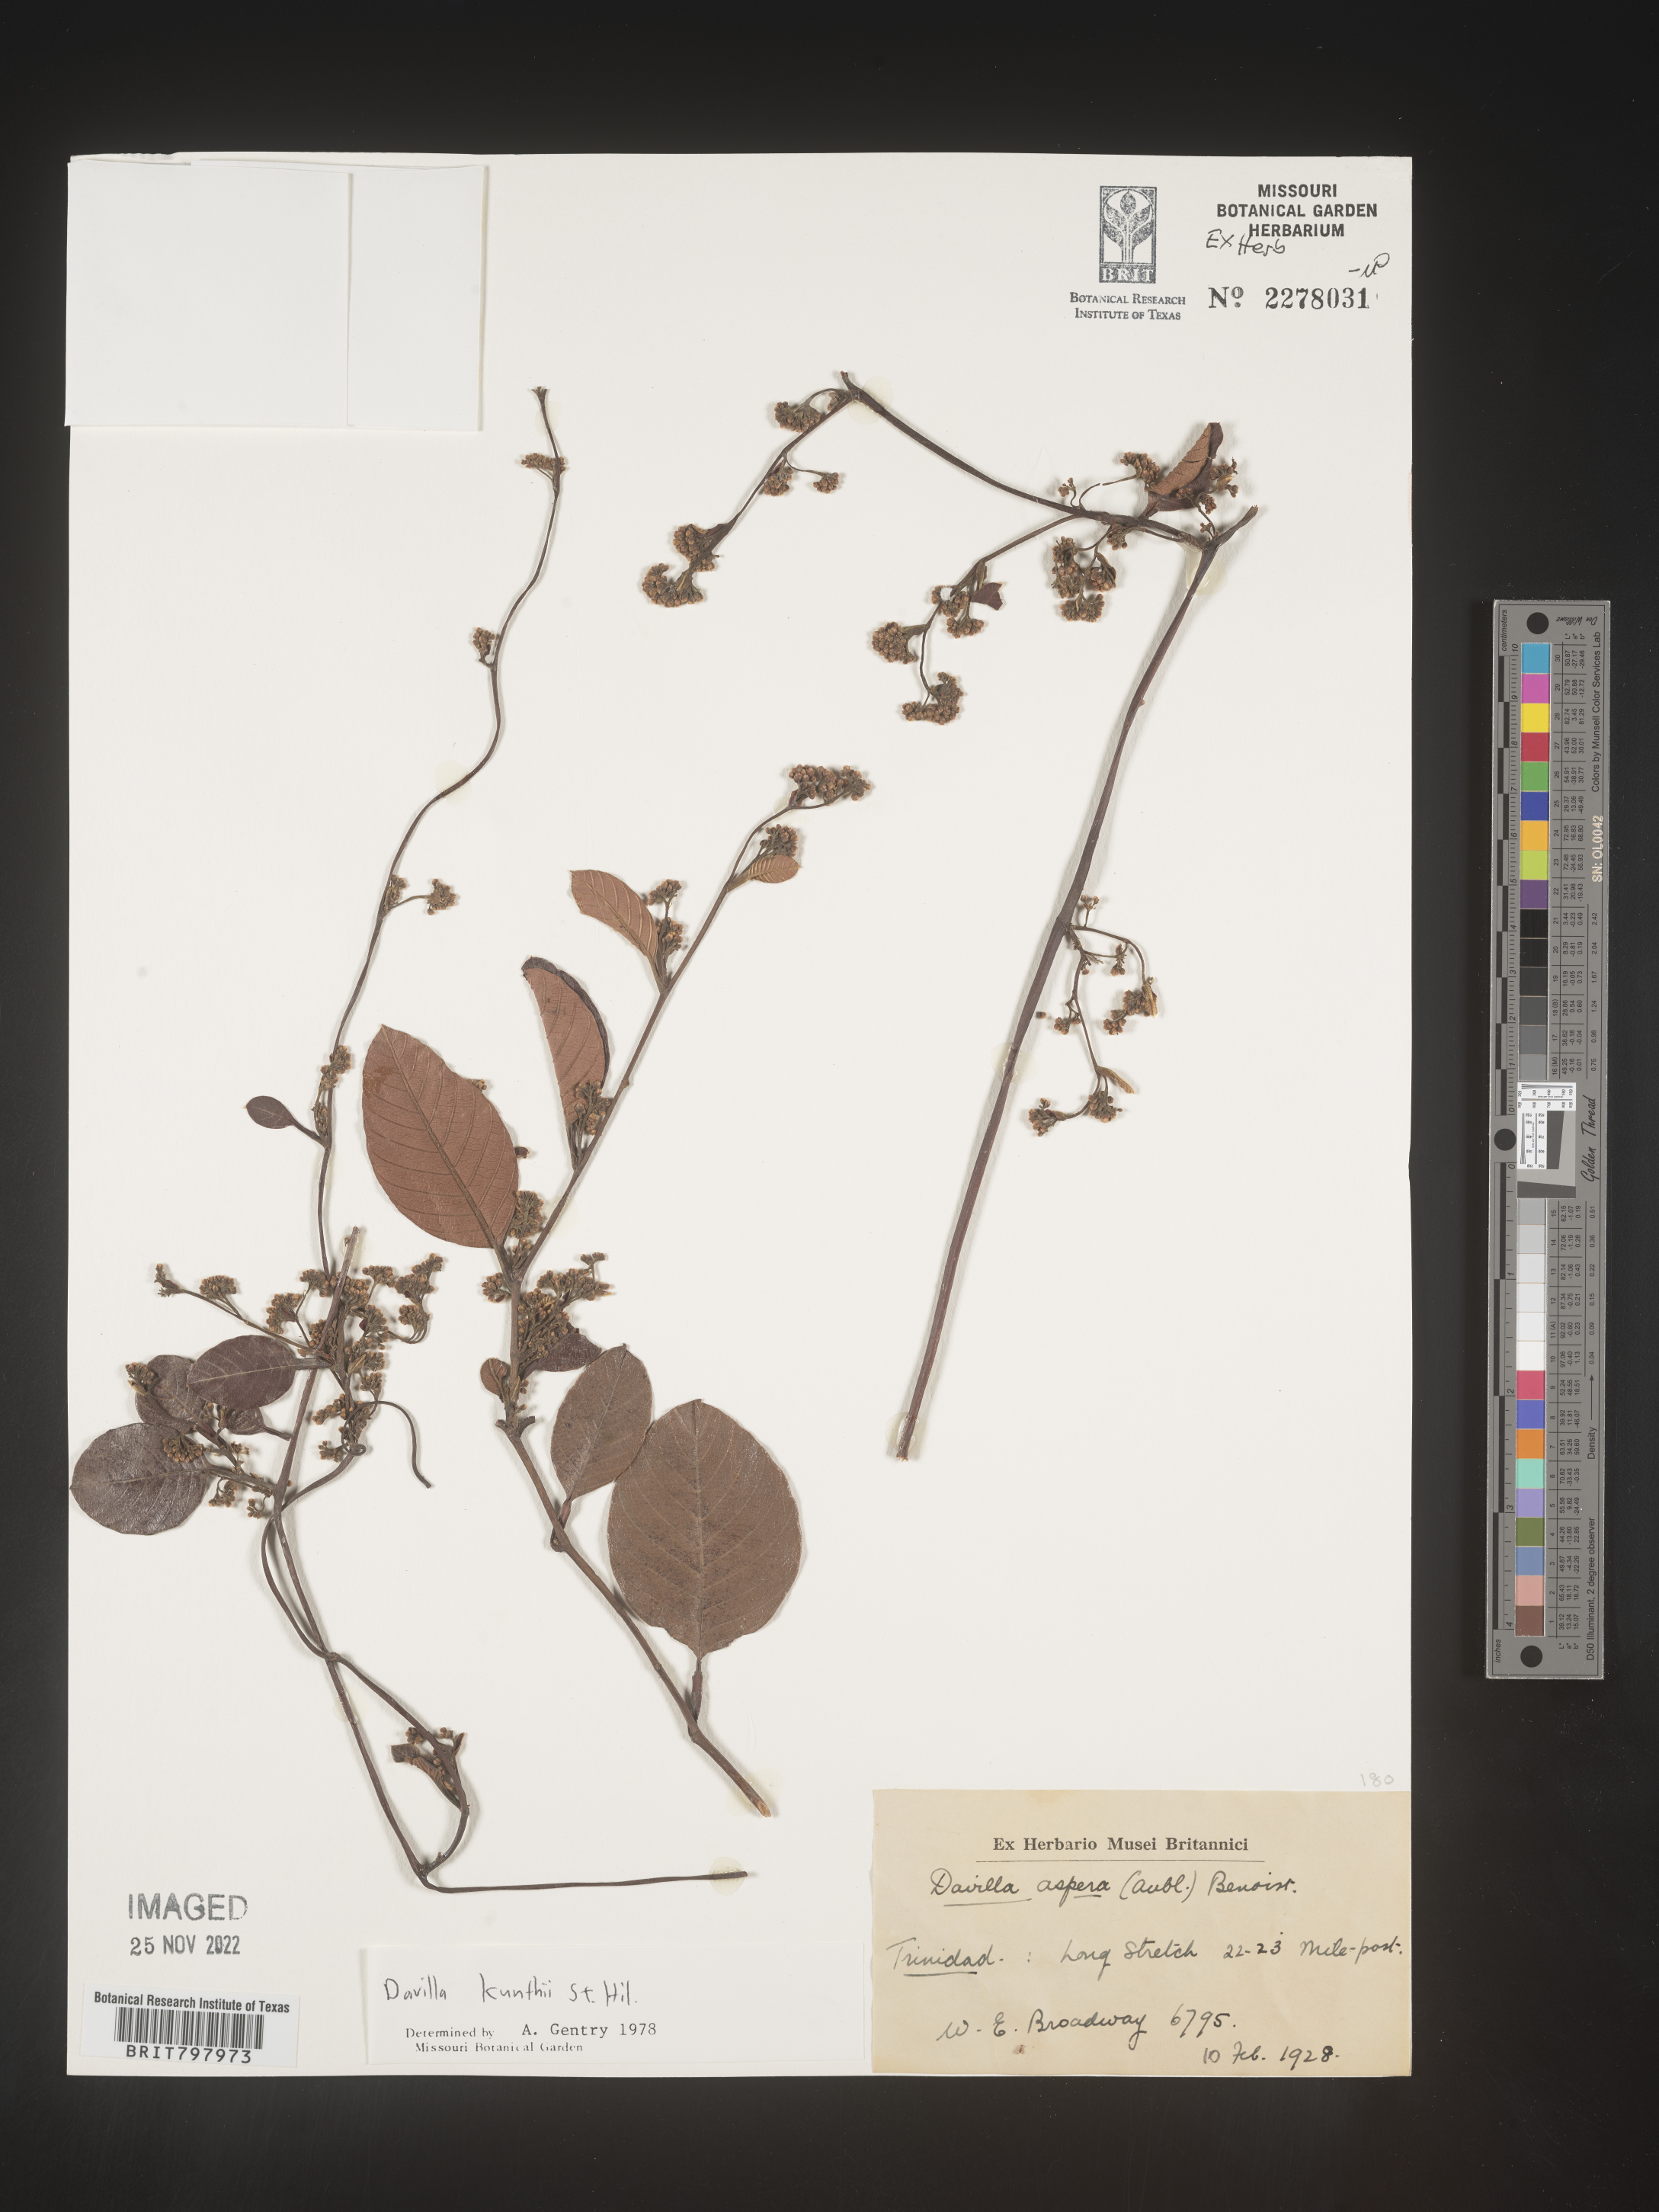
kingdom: Plantae
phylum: Tracheophyta
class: Polypodiopsida
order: Polypodiales
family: Davalliaceae
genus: Davallia
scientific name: Davallia
